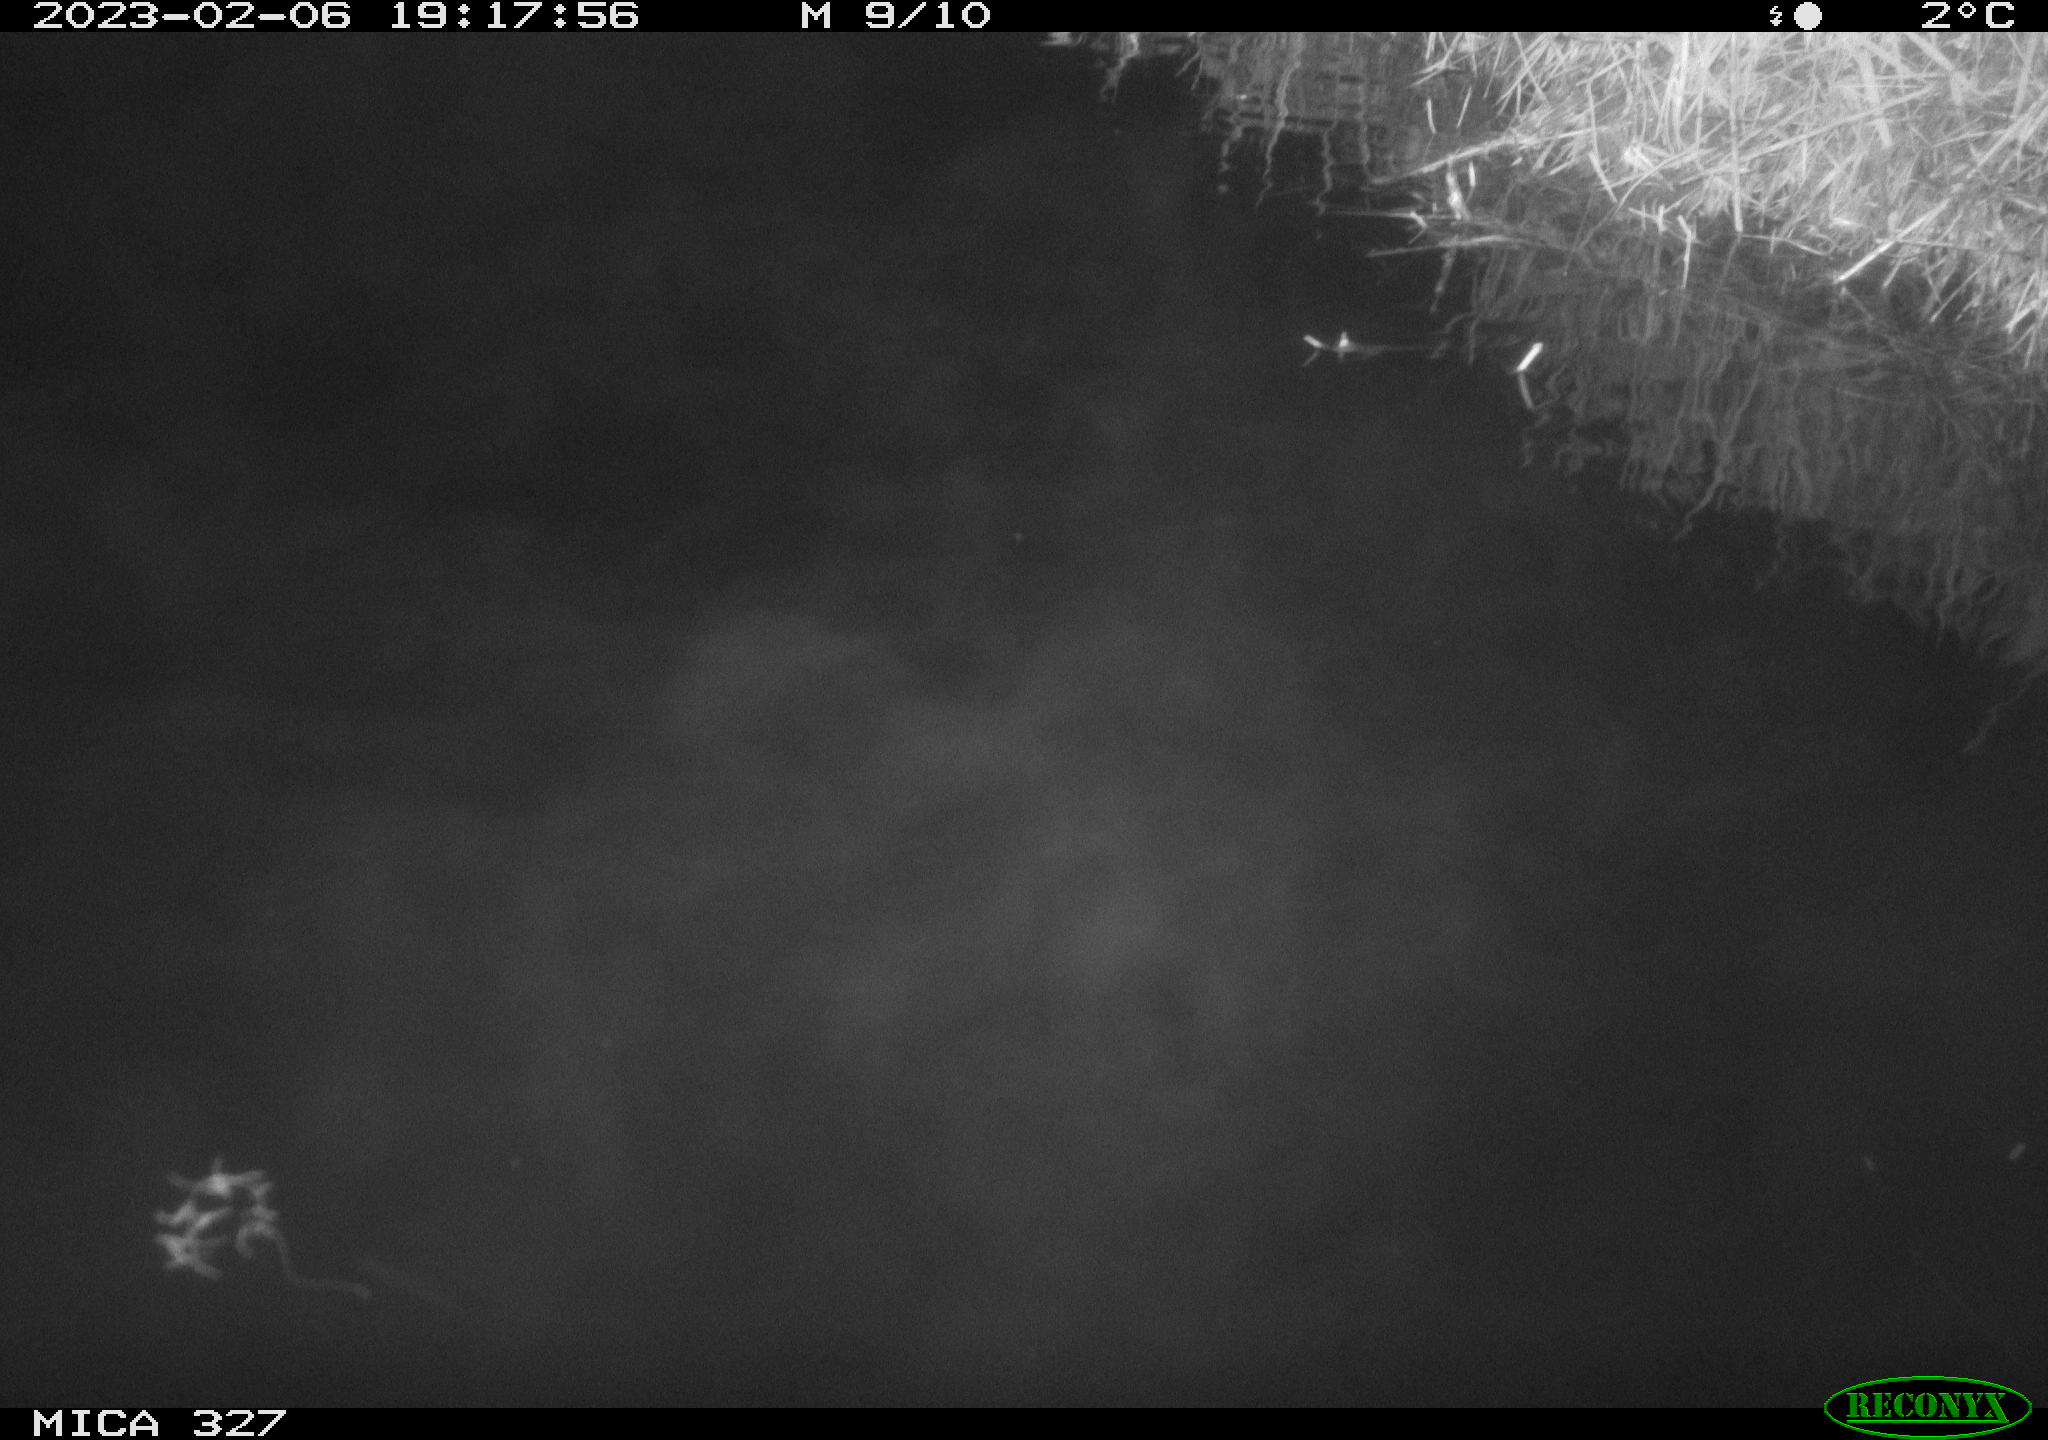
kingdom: Animalia
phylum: Chordata
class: Mammalia
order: Rodentia
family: Cricetidae
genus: Ondatra
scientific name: Ondatra zibethicus
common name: Muskrat
